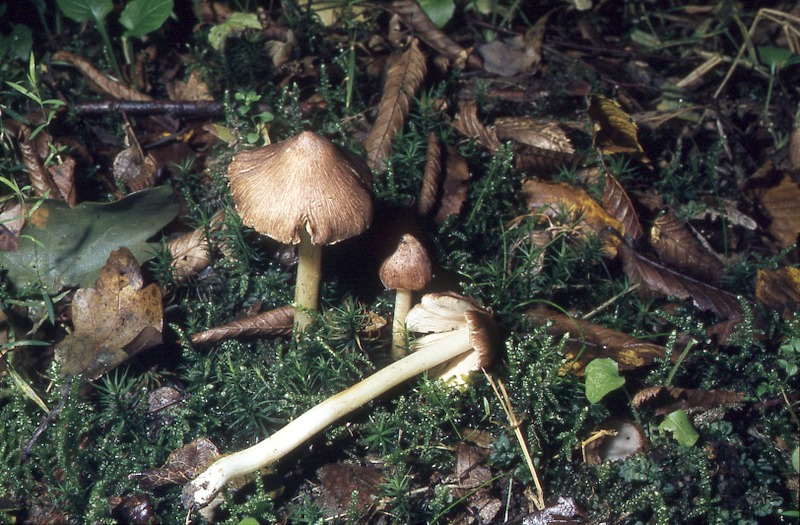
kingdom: Fungi
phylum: Basidiomycota
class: Agaricomycetes
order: Agaricales
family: Inocybaceae
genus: Pseudosperma
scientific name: Pseudosperma rimosum
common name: Split fibrecap
